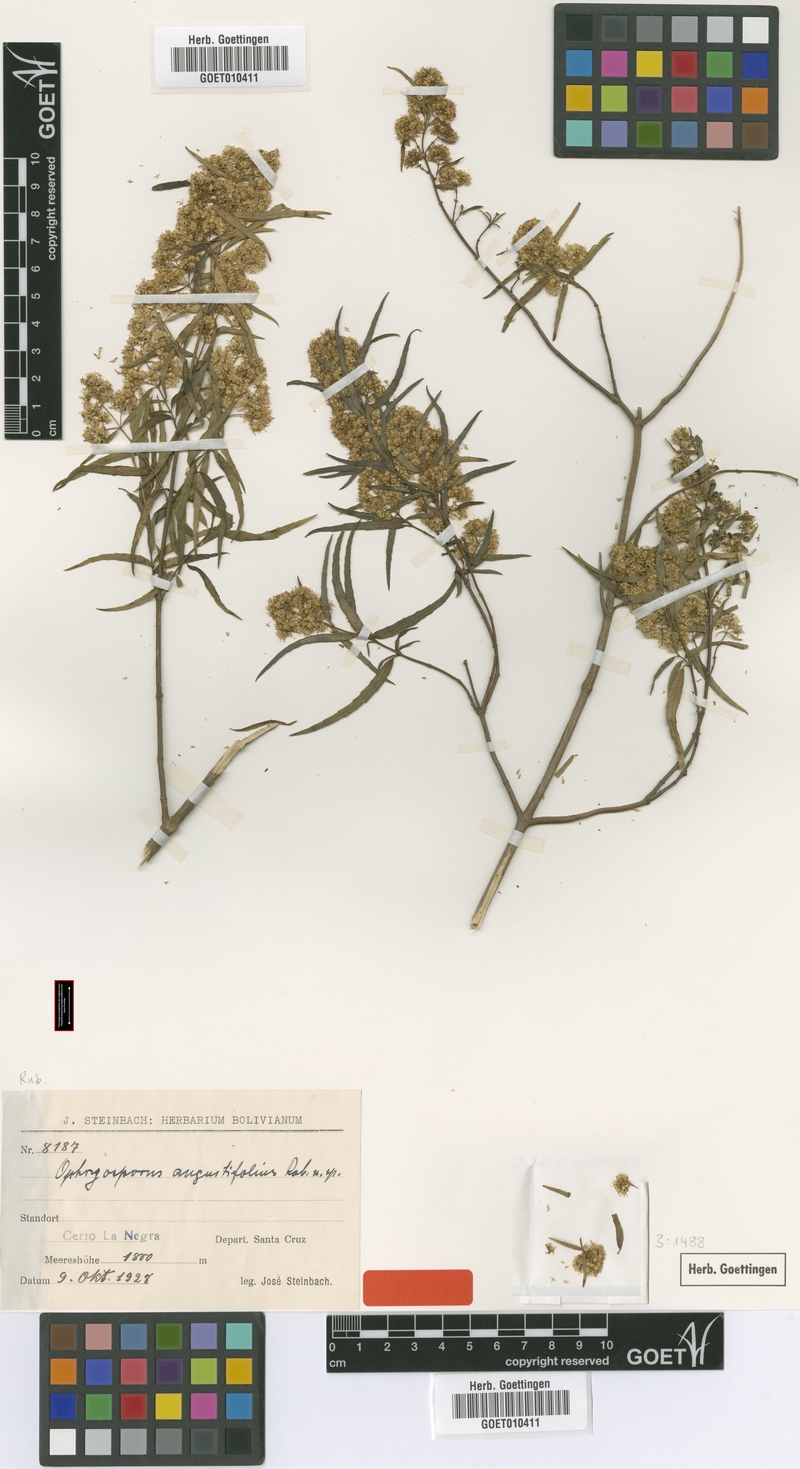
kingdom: Plantae
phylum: Tracheophyta
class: Magnoliopsida
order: Asterales
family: Asteraceae
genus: Ophryosporus
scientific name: Ophryosporus angustifolius
